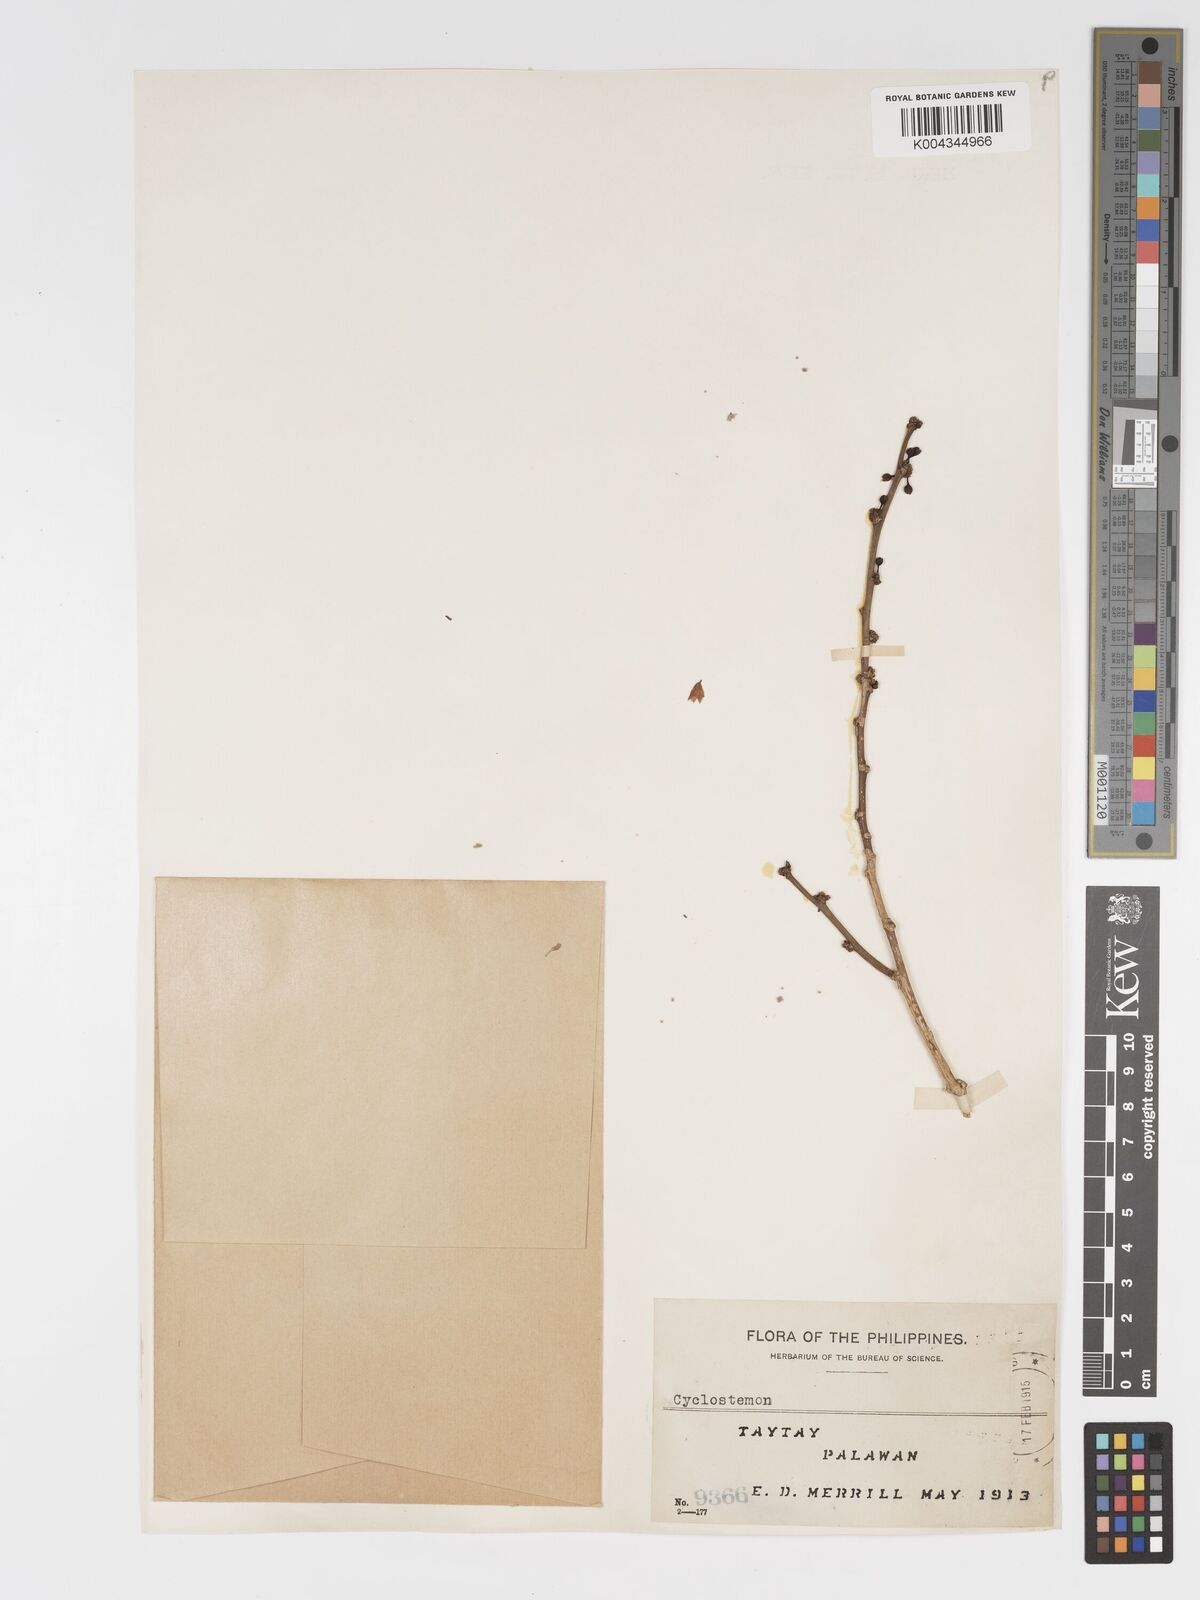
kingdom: Plantae
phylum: Tracheophyta
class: Magnoliopsida
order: Malpighiales
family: Putranjivaceae
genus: Drypetes
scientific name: Drypetes littoralis
